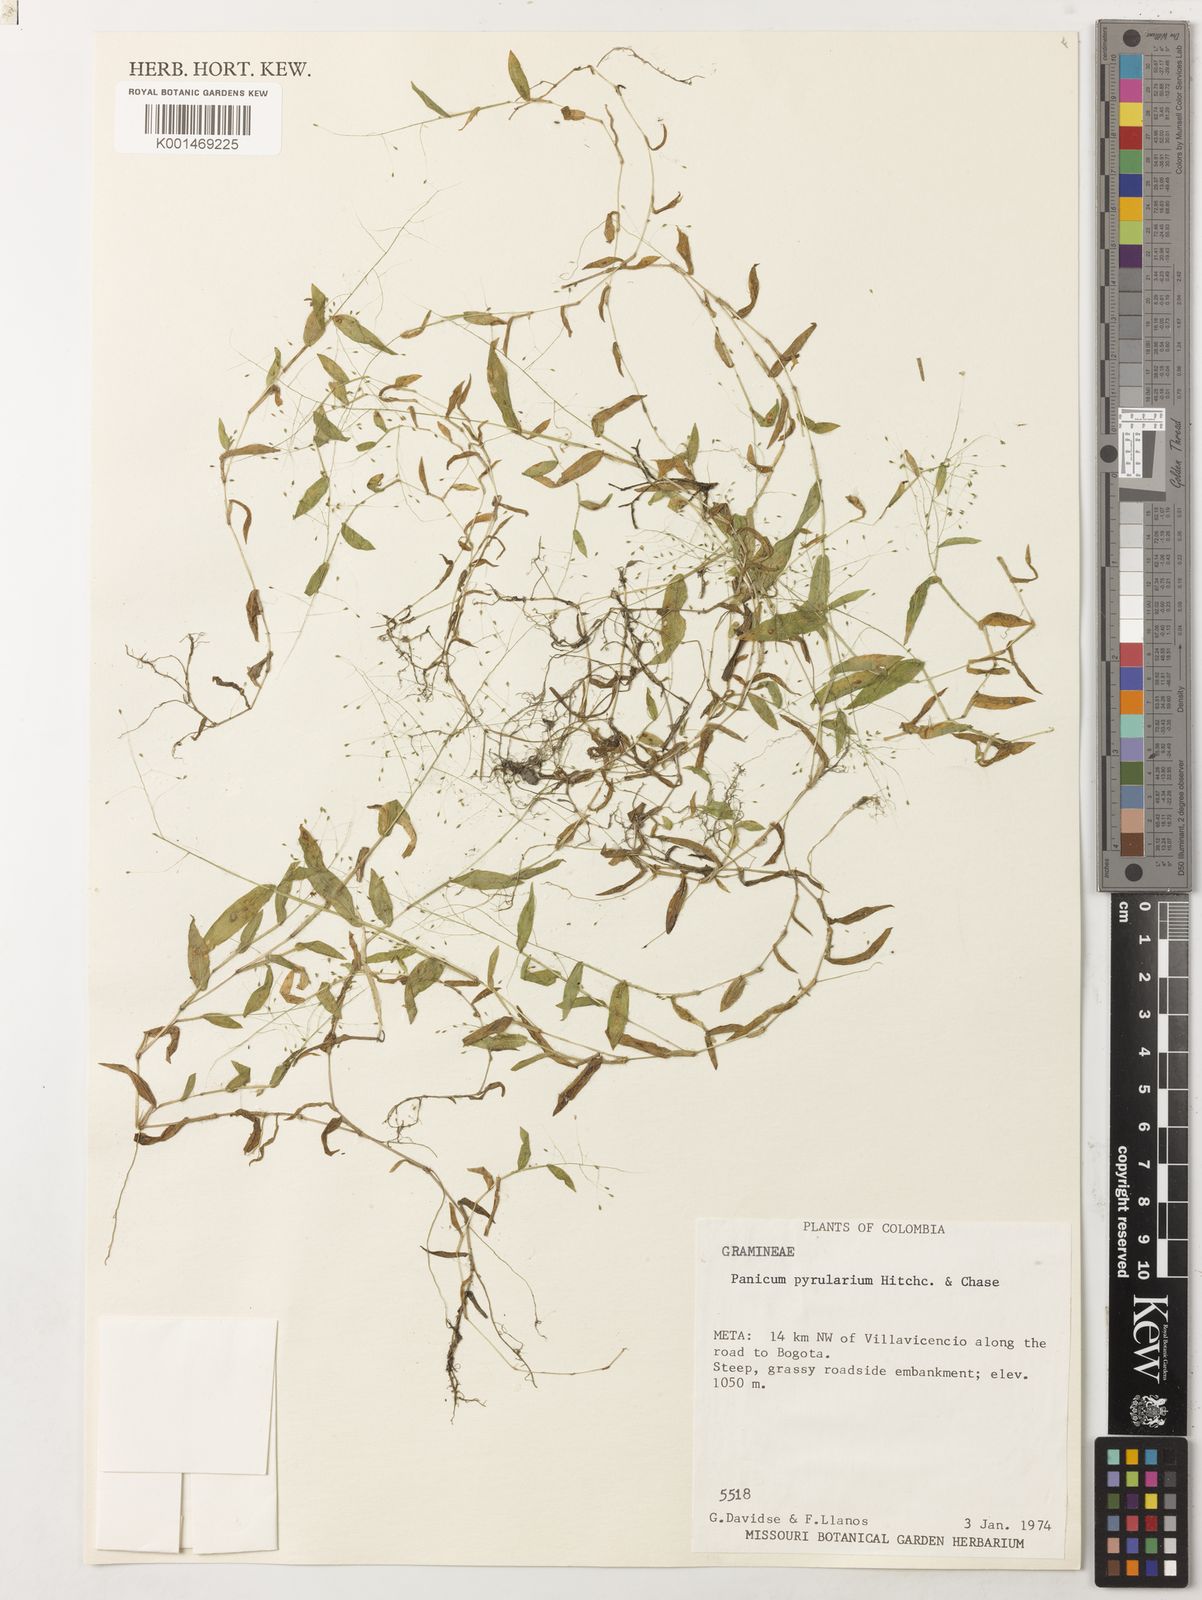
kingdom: Plantae
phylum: Tracheophyta
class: Liliopsida
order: Poales
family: Poaceae
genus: Trichanthecium
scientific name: Trichanthecium pyrularium
